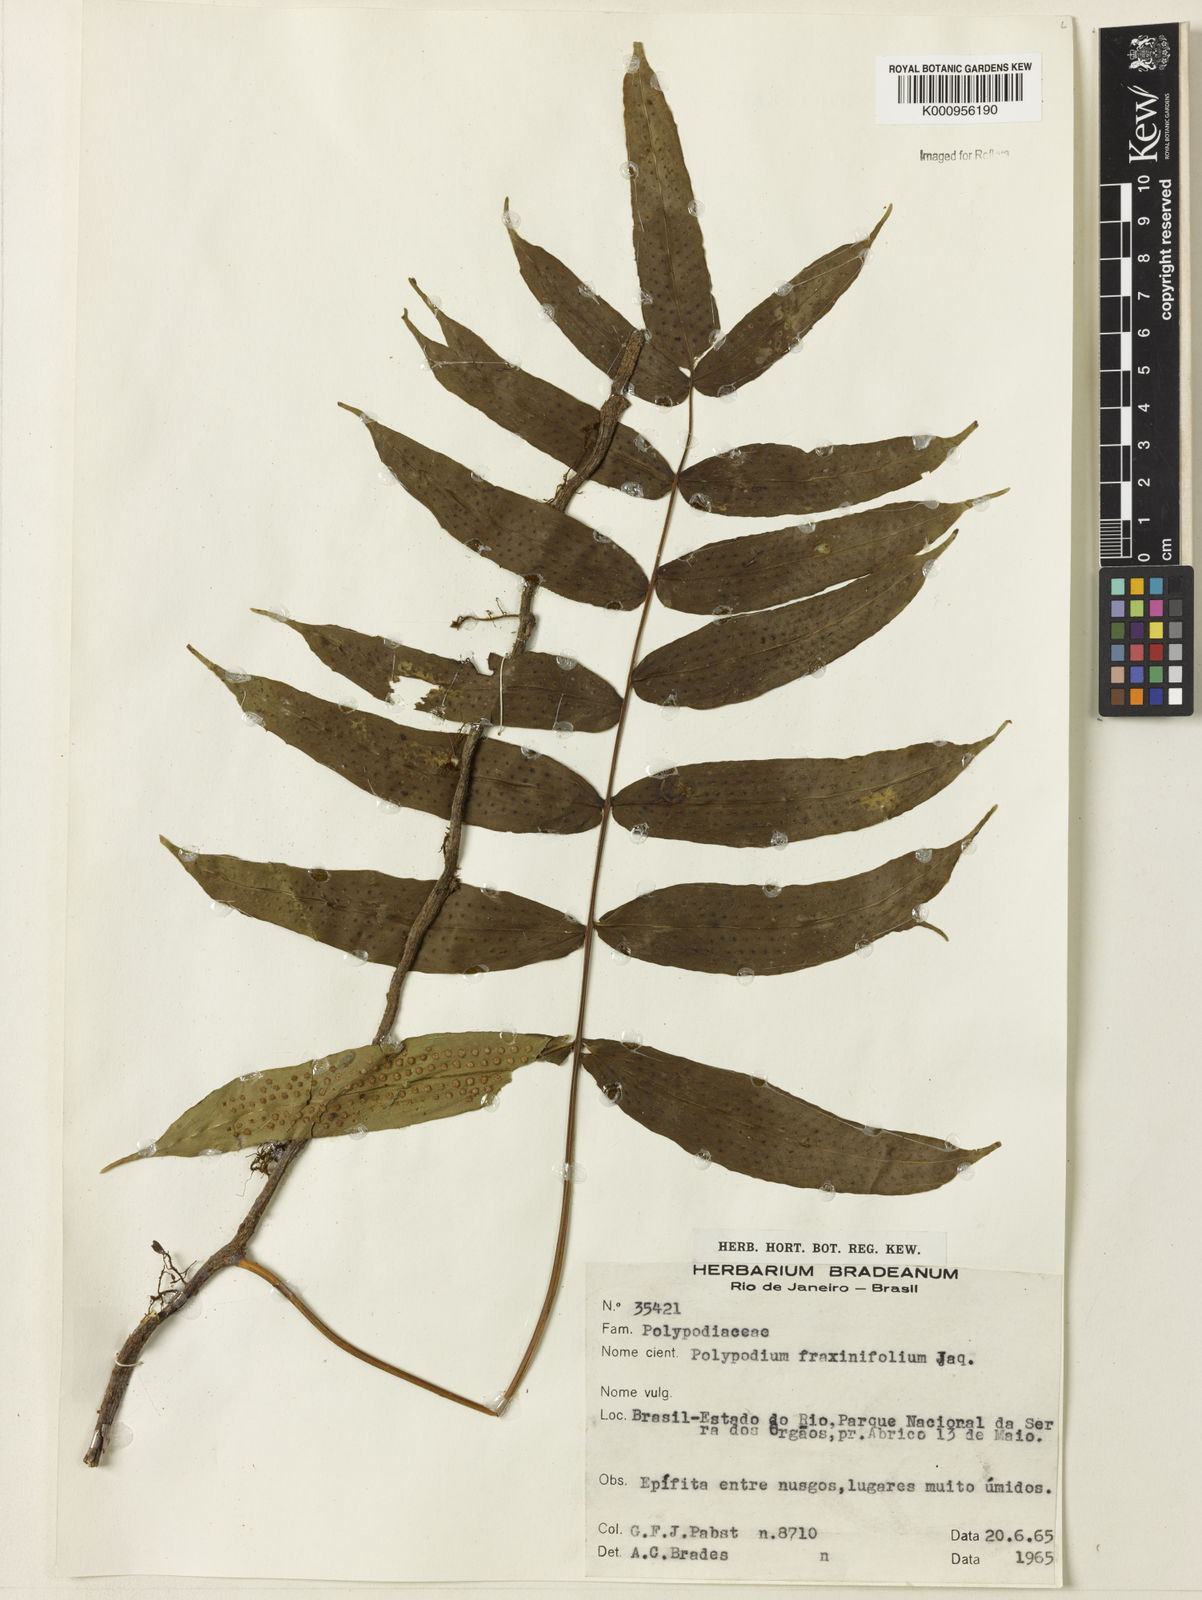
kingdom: Plantae
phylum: Tracheophyta
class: Polypodiopsida
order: Polypodiales
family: Polypodiaceae
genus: Serpocaulon
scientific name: Serpocaulon fraxinifolium
